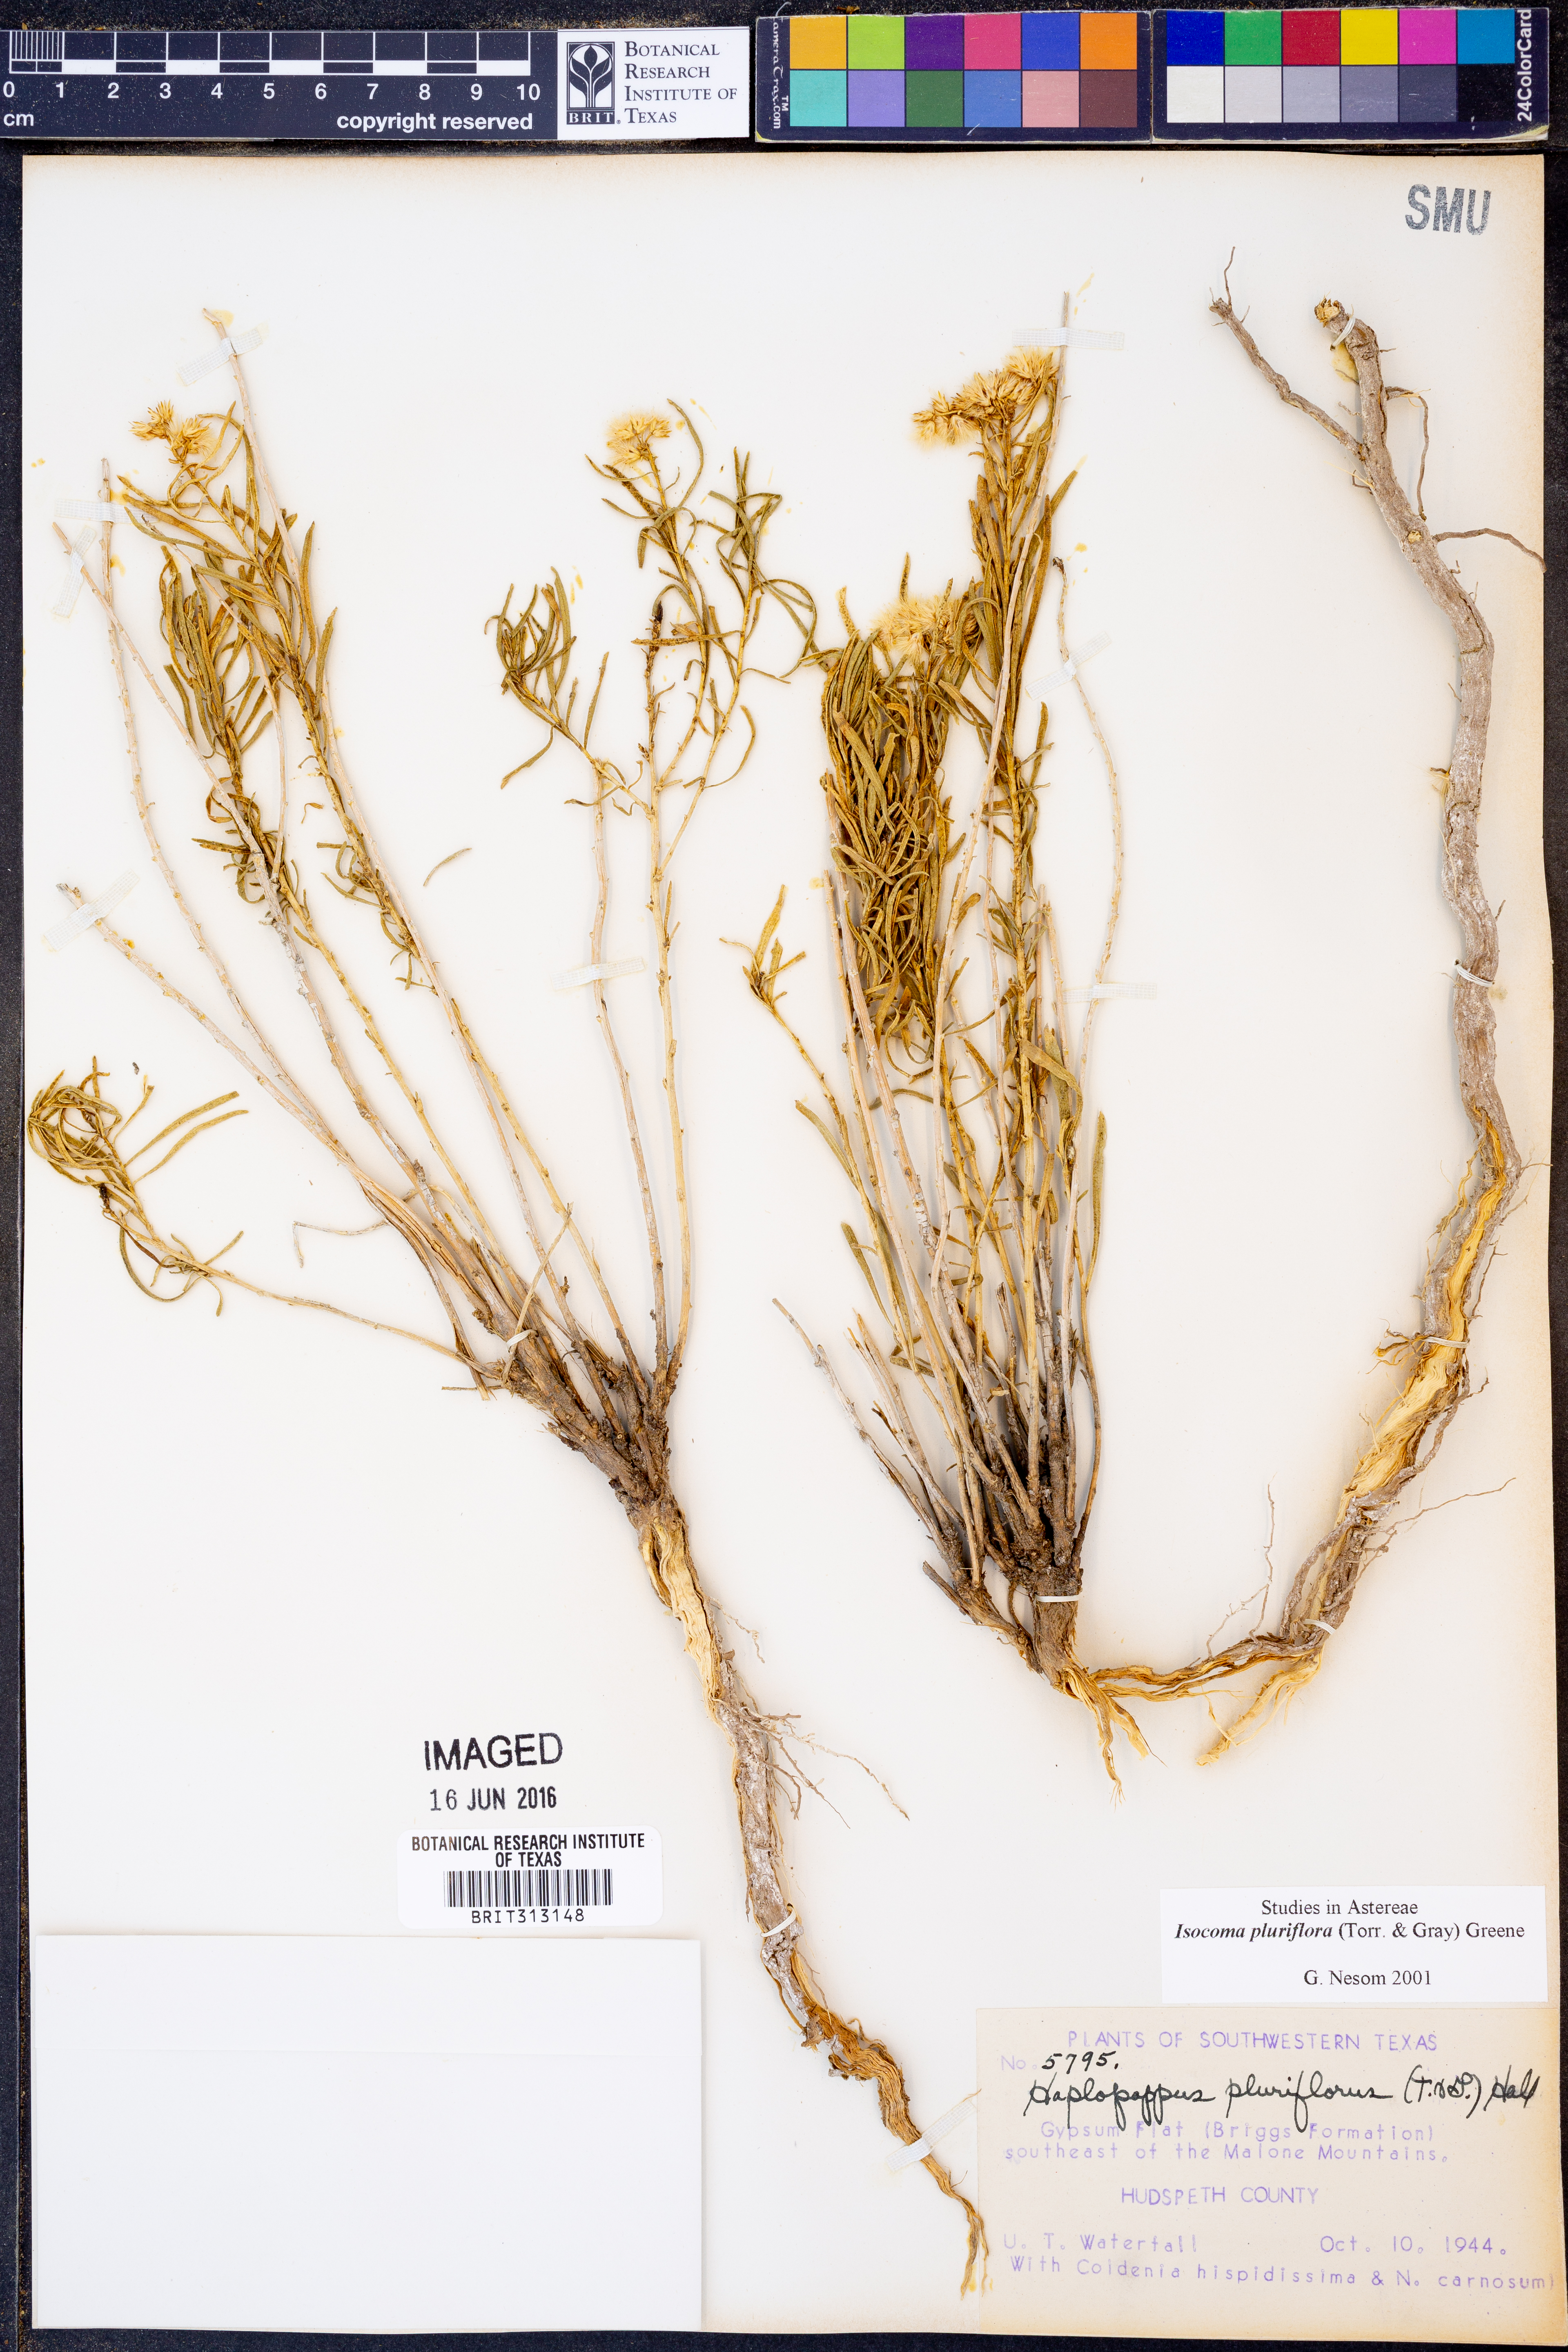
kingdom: Plantae
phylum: Tracheophyta
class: Magnoliopsida
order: Asterales
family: Asteraceae
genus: Isocoma
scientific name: Isocoma pluriflora
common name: Southern jimmyweed
